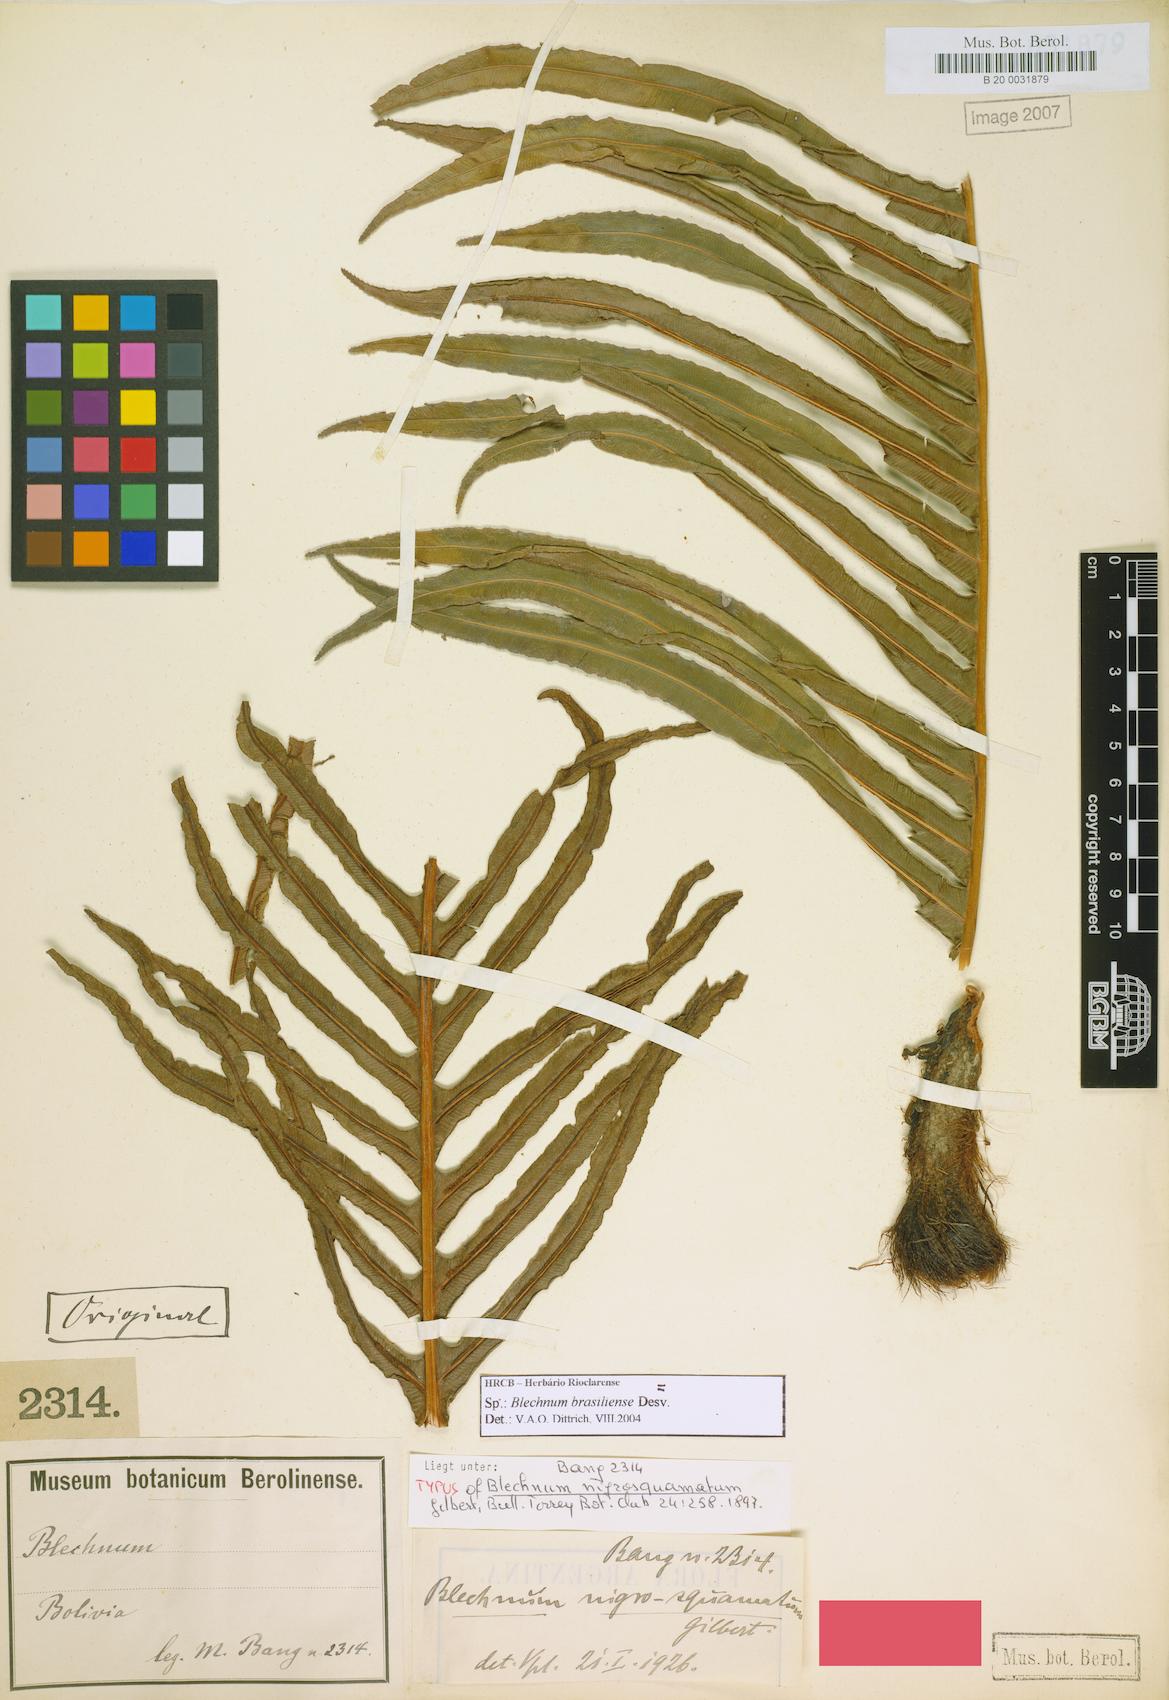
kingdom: Plantae
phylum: Tracheophyta
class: Polypodiopsida
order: Polypodiales
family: Blechnaceae
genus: Neoblechnum
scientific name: Neoblechnum brasiliense
